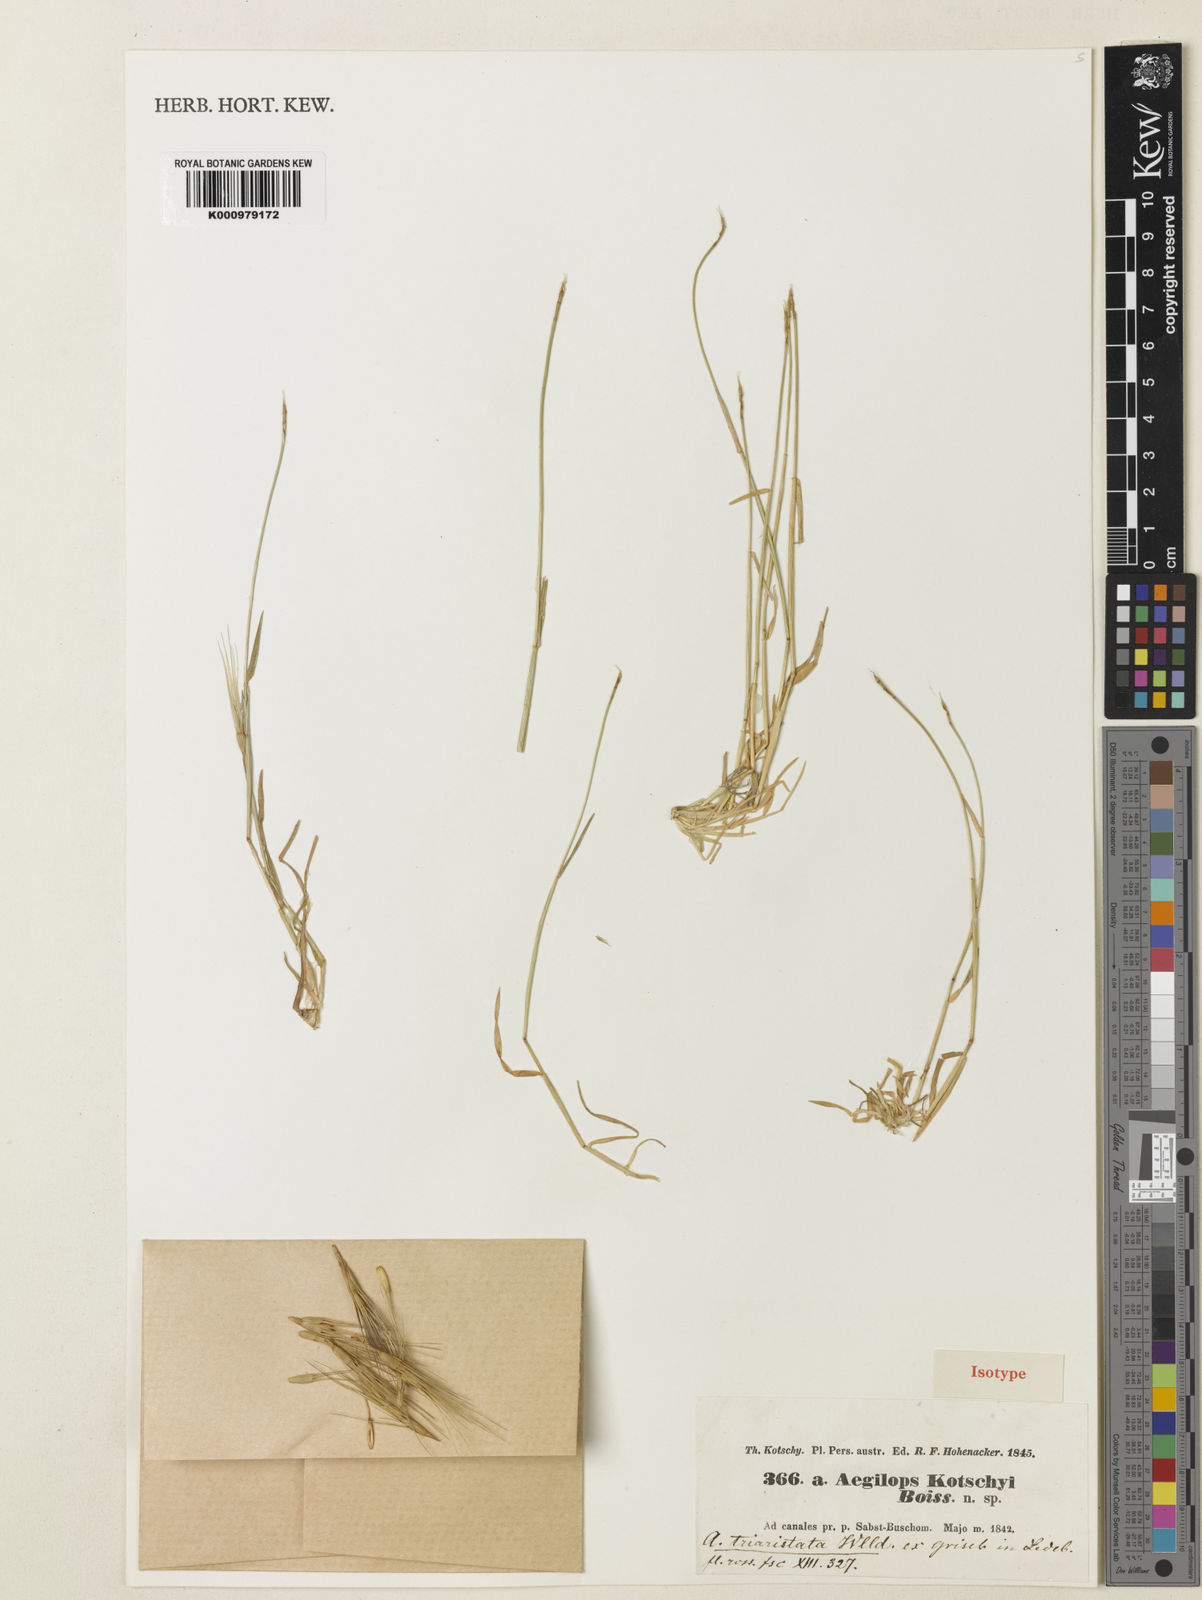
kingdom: Plantae
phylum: Tracheophyta
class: Liliopsida
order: Poales
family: Poaceae
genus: Aegilops
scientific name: Aegilops kotschyi
